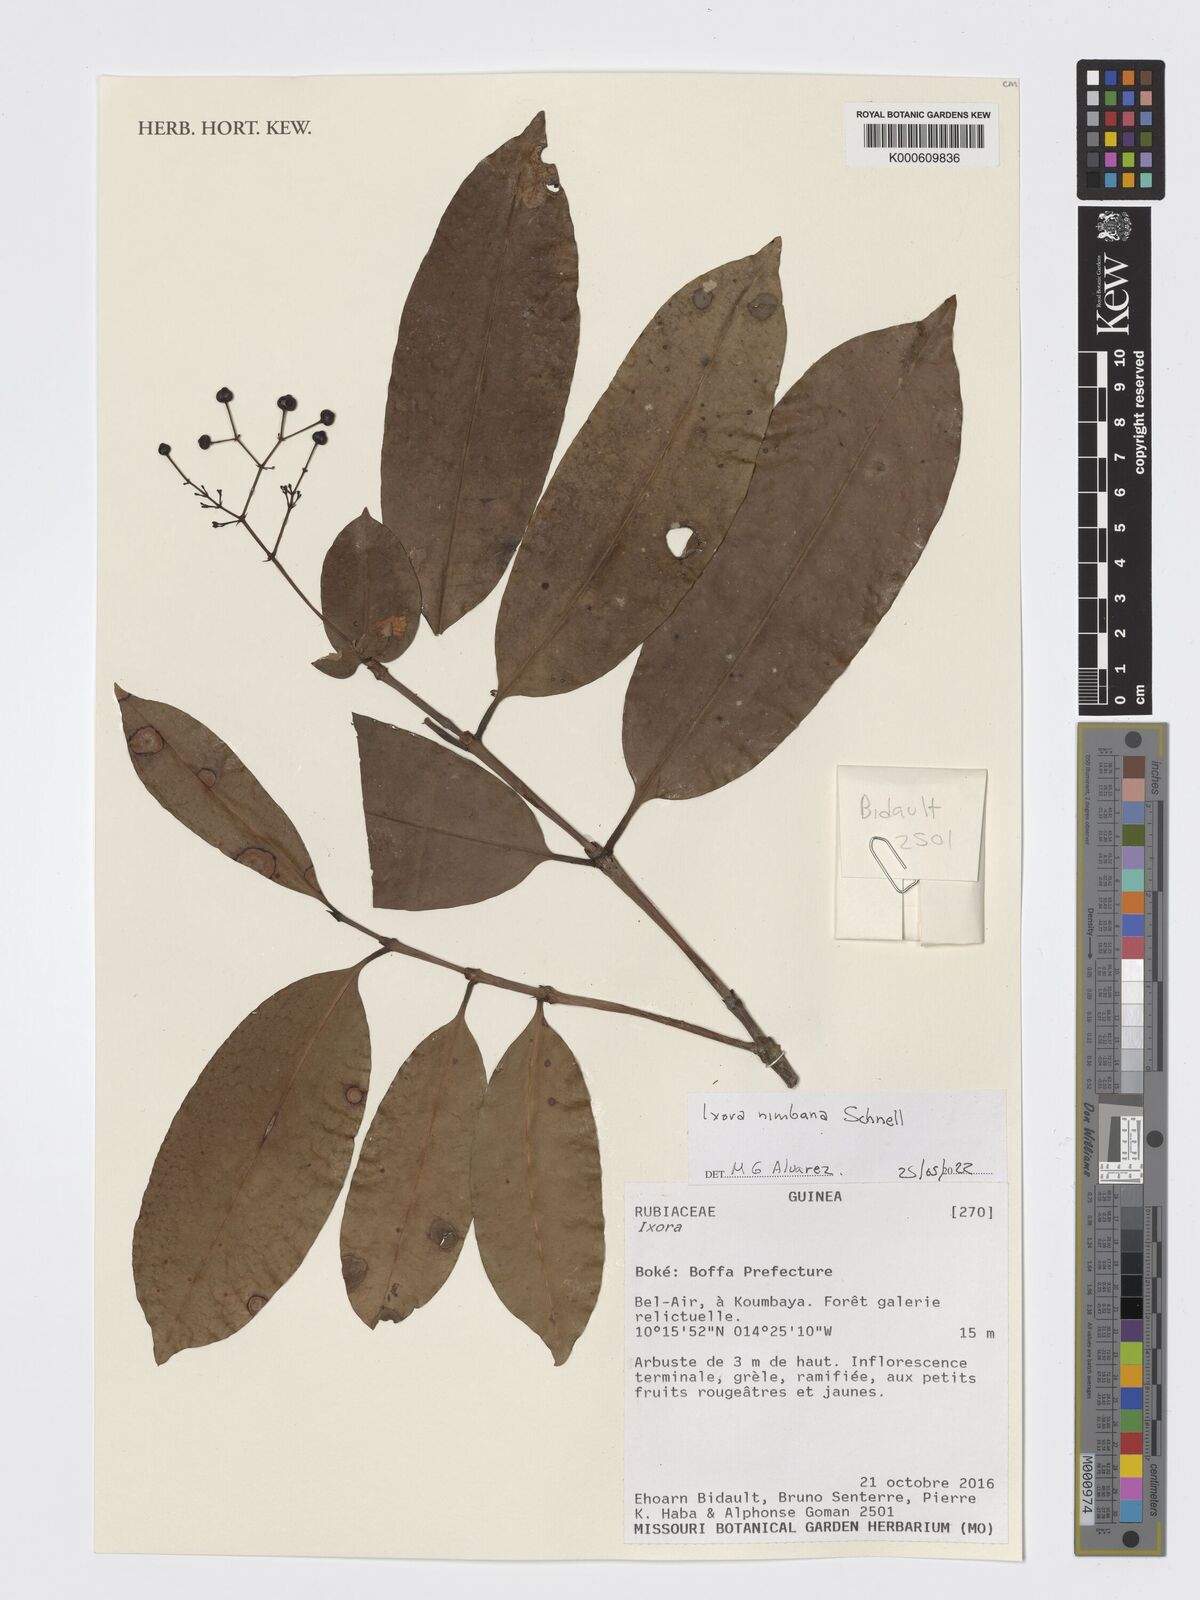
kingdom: Plantae
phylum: Tracheophyta
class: Magnoliopsida
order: Gentianales
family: Rubiaceae
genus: Ixora
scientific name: Ixora nimbana
